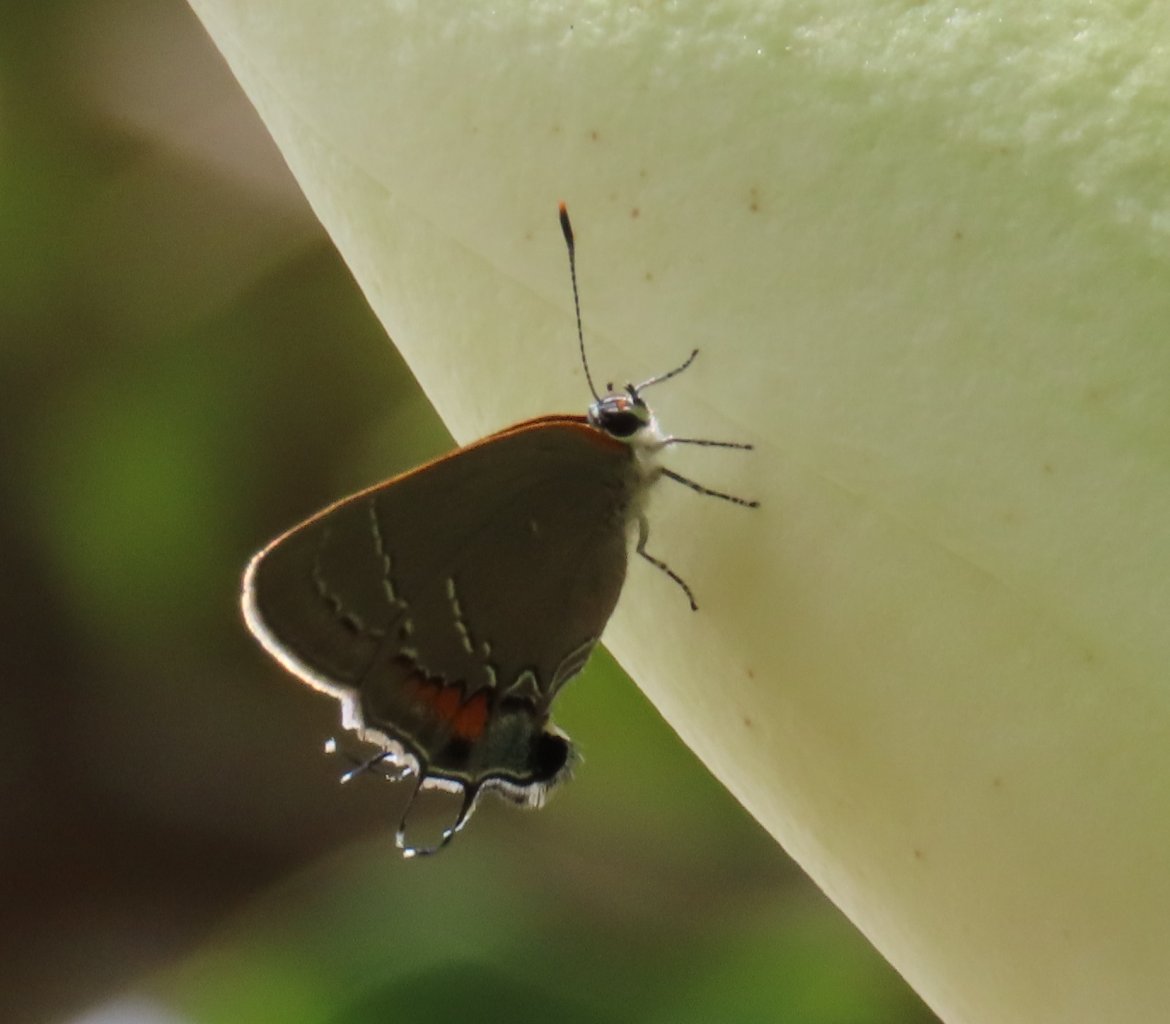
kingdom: Animalia
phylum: Arthropoda
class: Insecta
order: Lepidoptera
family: Lycaenidae
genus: Fixsenia
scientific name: Fixsenia favonius
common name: Oak Hairstreak
